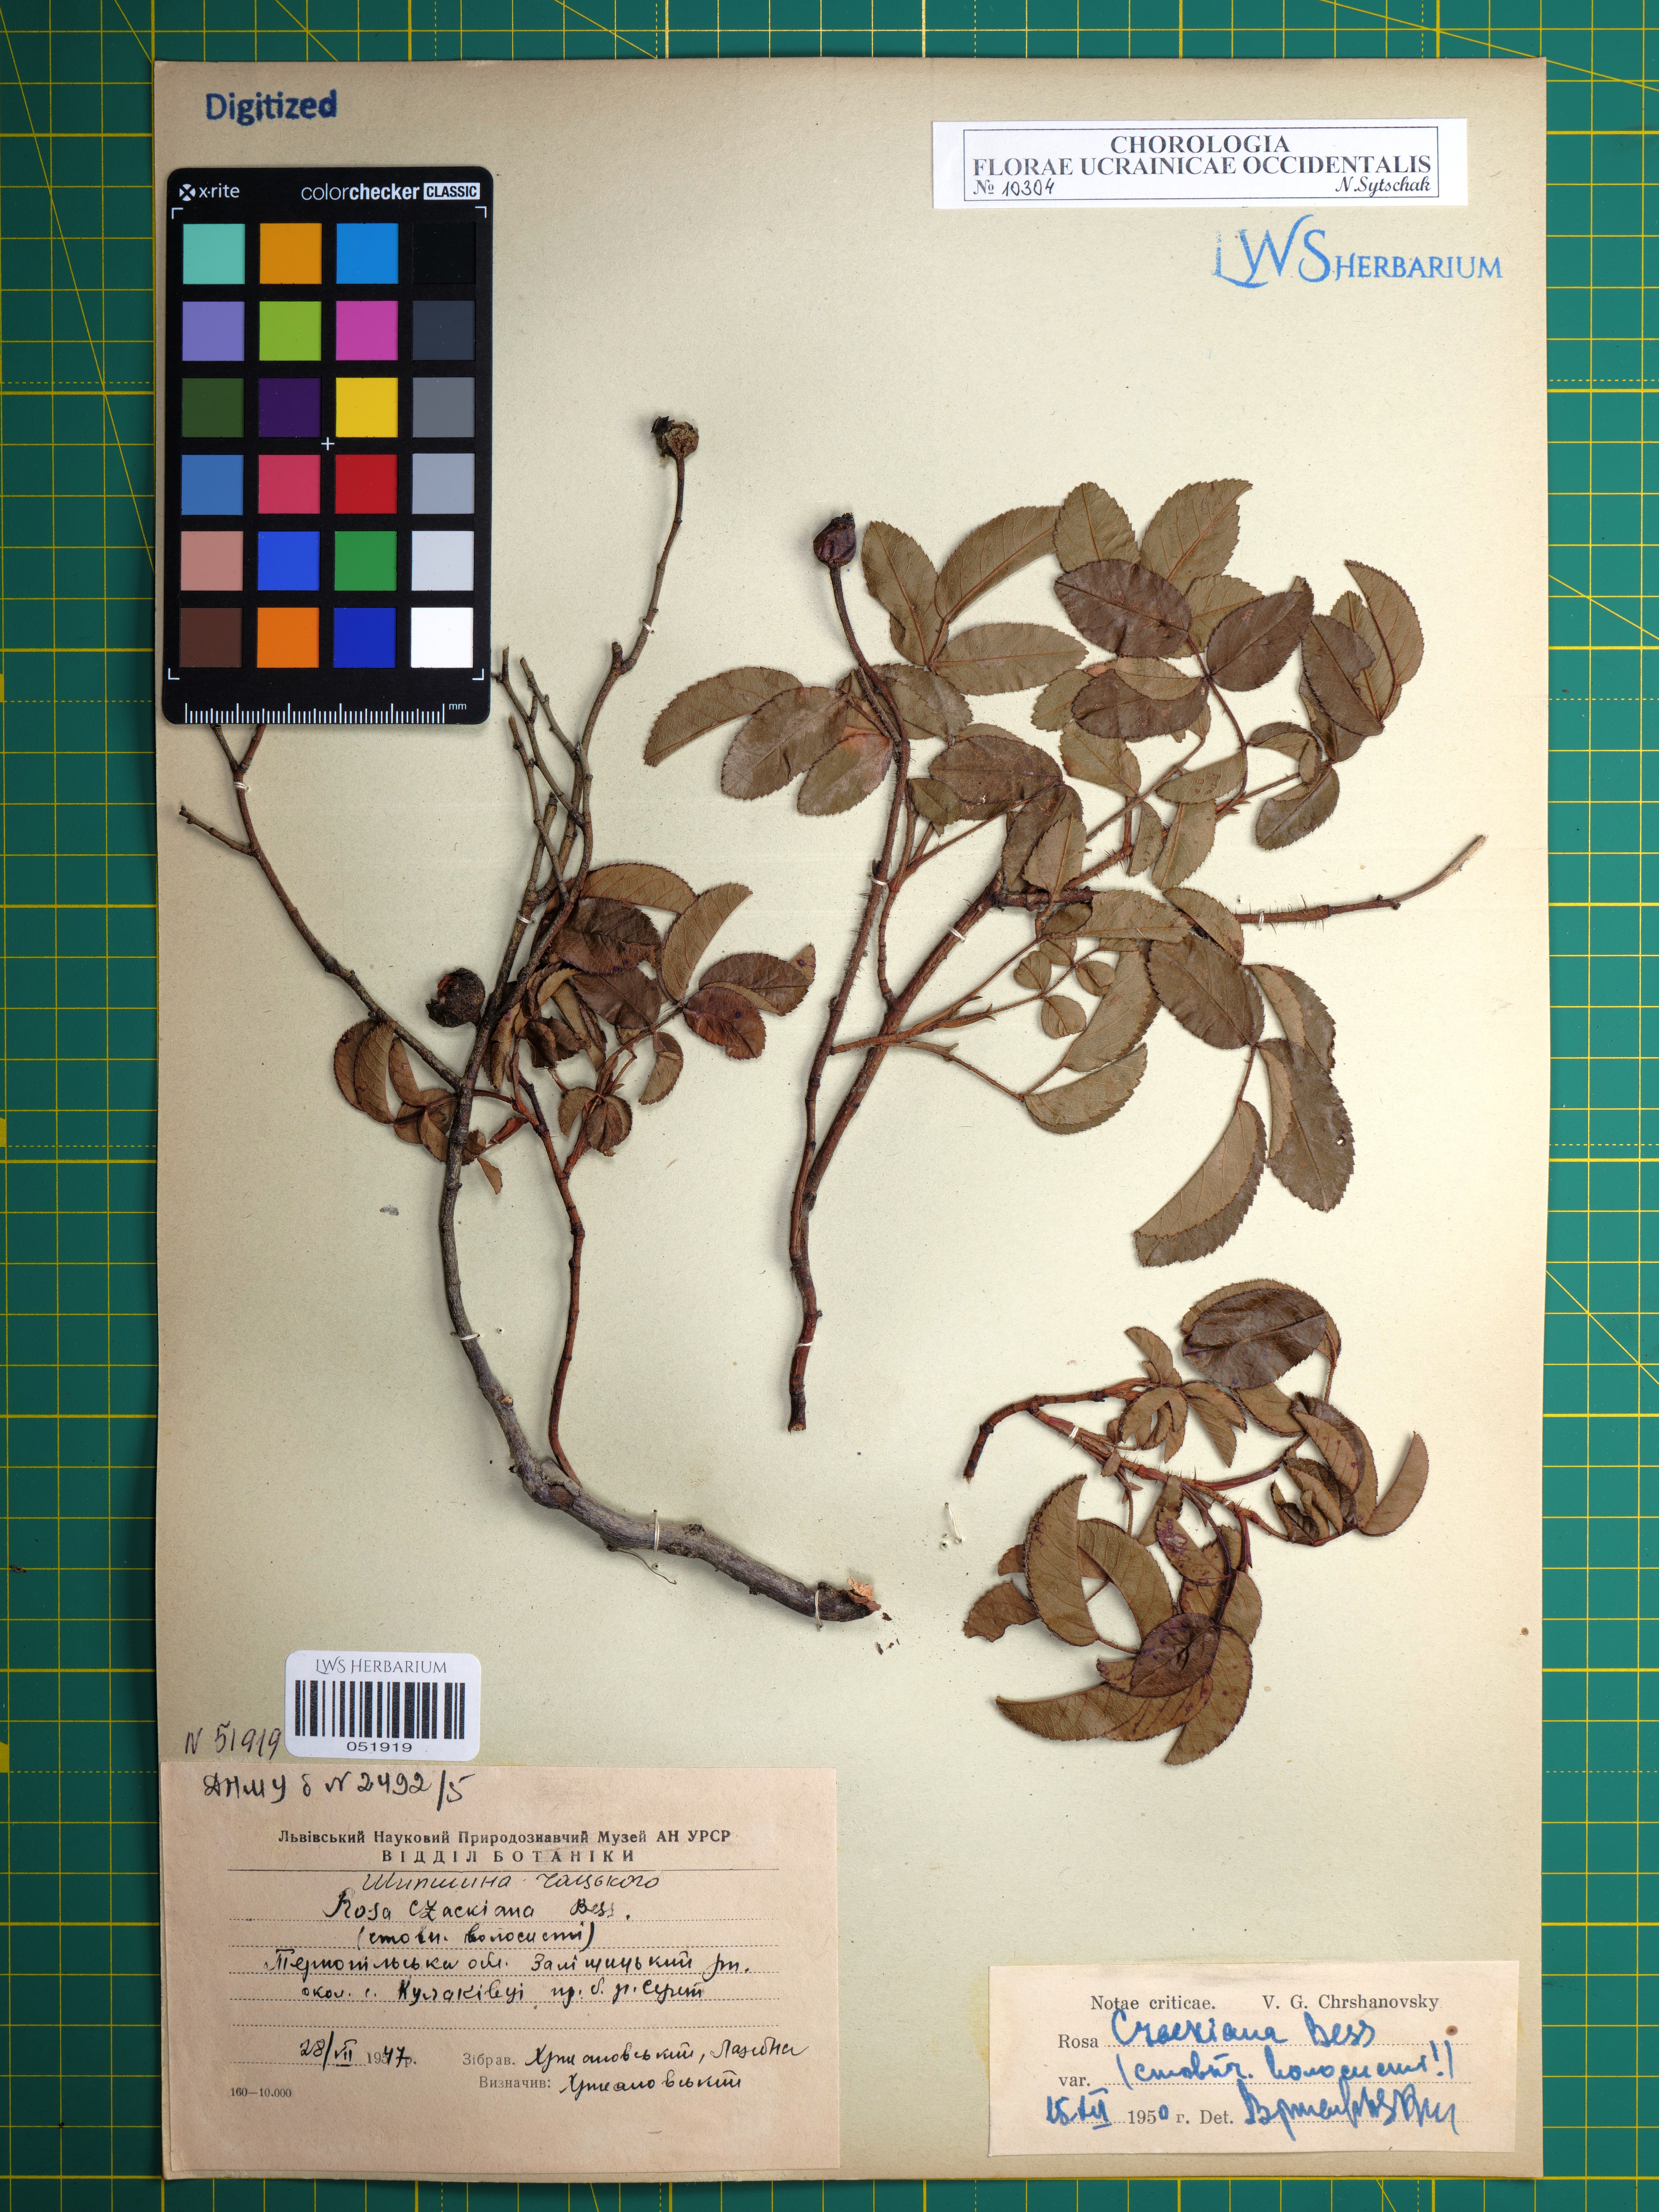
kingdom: Plantae
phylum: Tracheophyta
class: Magnoliopsida
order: Rosales
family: Rosaceae
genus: Rosa
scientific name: Rosa gallica
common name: French rose
